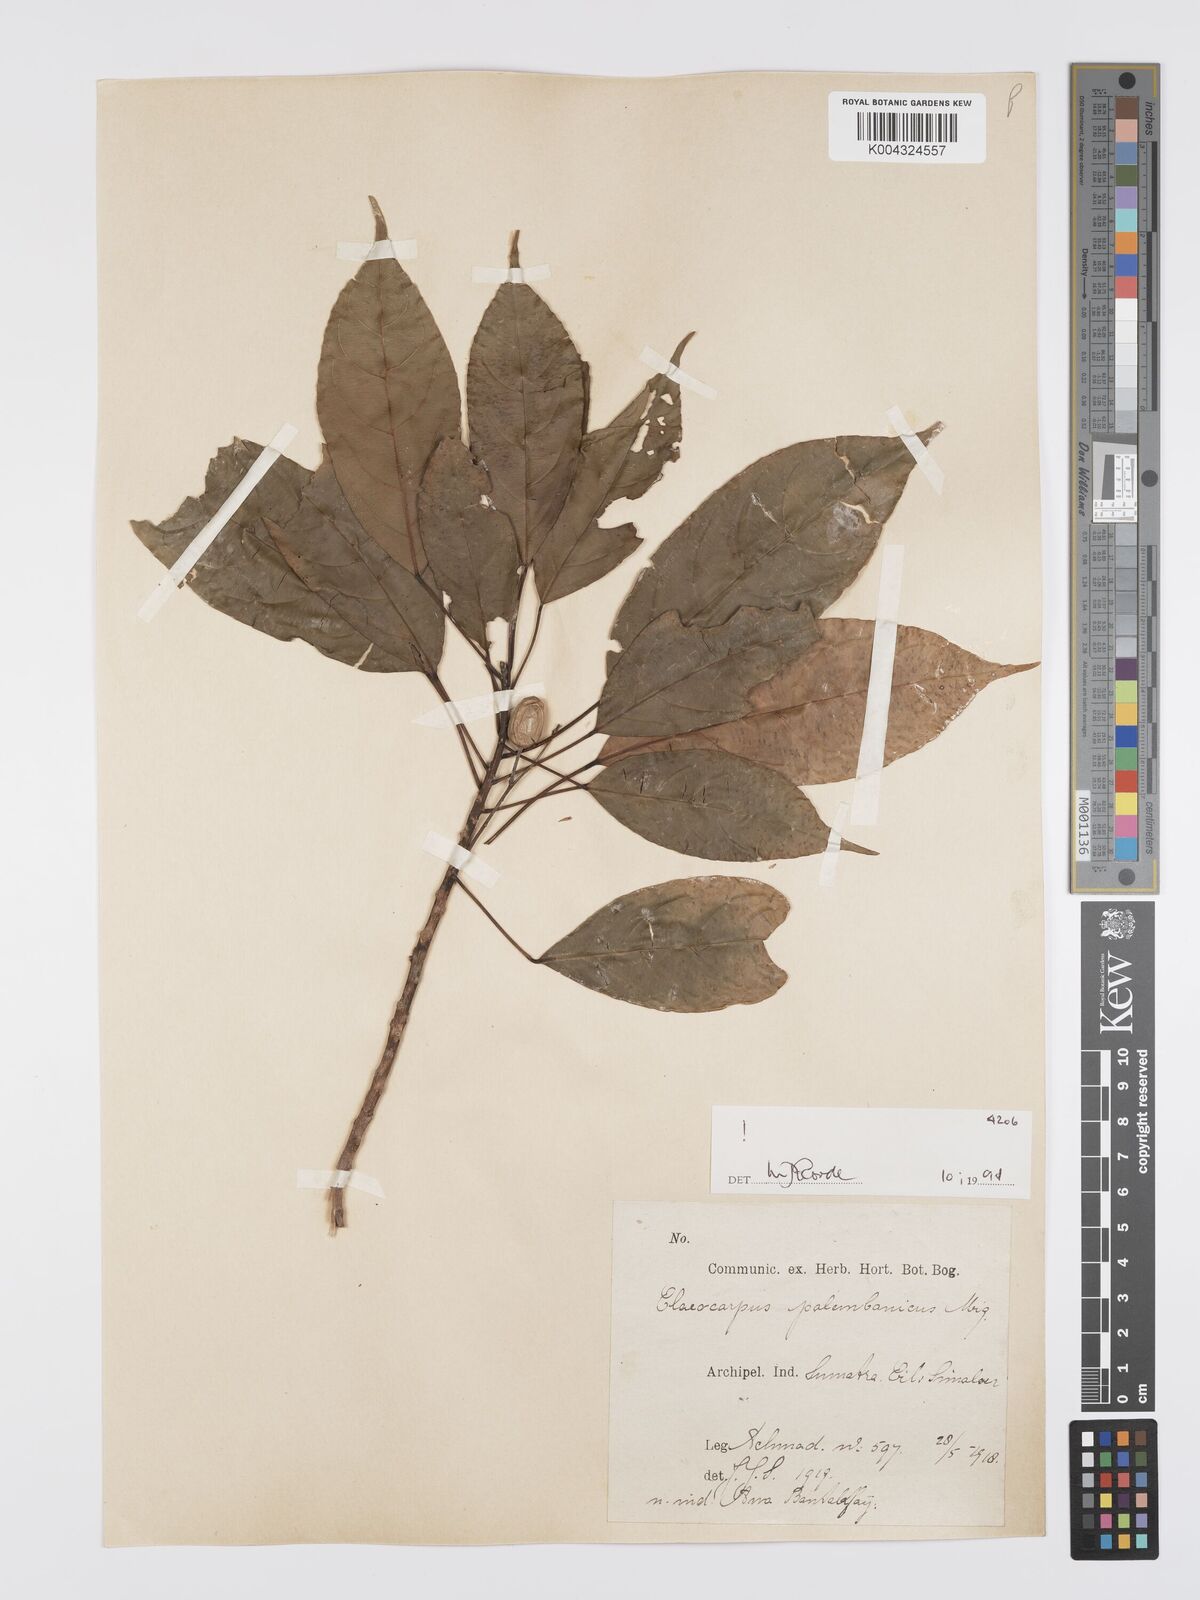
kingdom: Plantae
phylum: Tracheophyta
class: Magnoliopsida
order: Oxalidales
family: Elaeocarpaceae
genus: Elaeocarpus
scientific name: Elaeocarpus palembanicus
